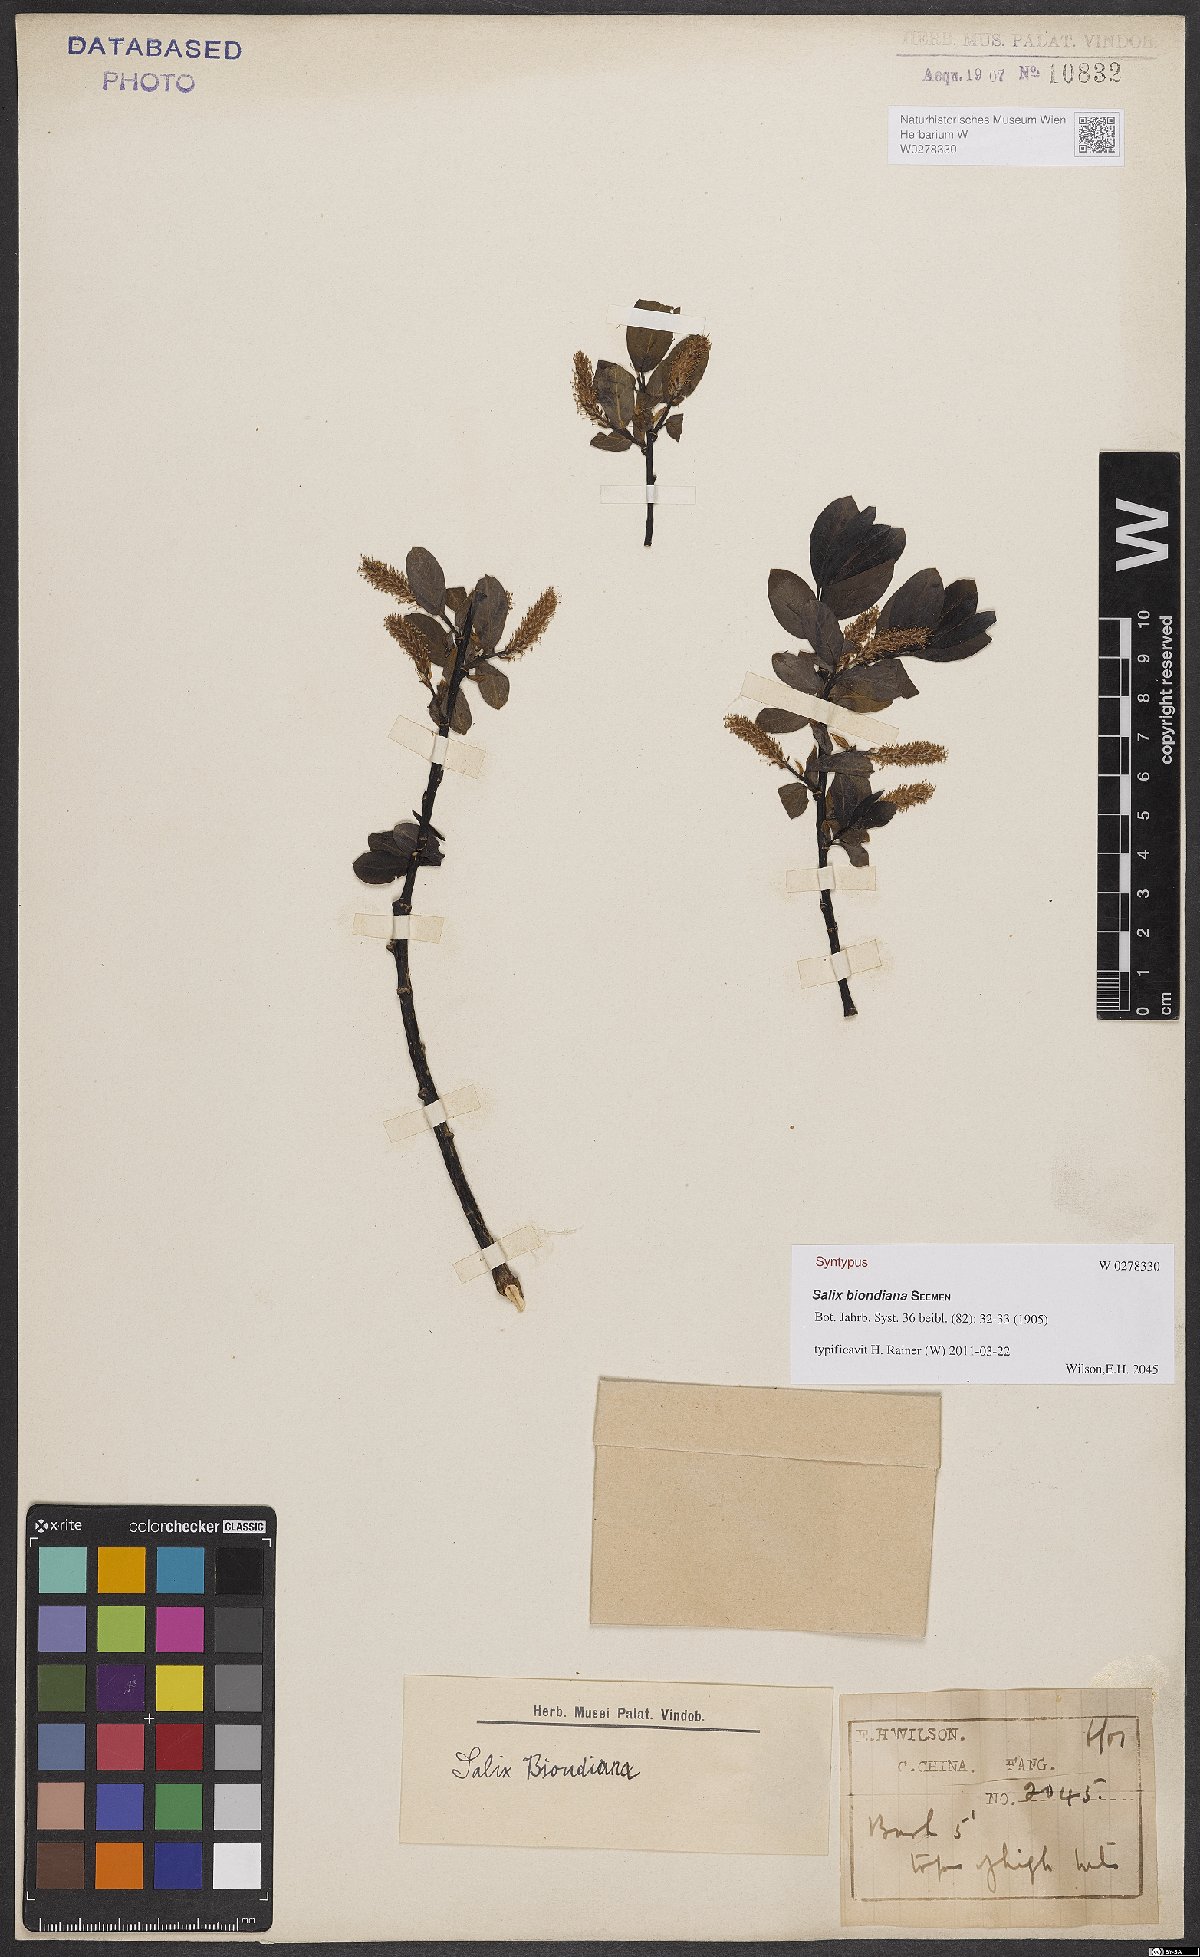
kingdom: Plantae
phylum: Tracheophyta
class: Magnoliopsida
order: Malpighiales
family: Salicaceae
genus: Salix
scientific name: Salix biondiana
